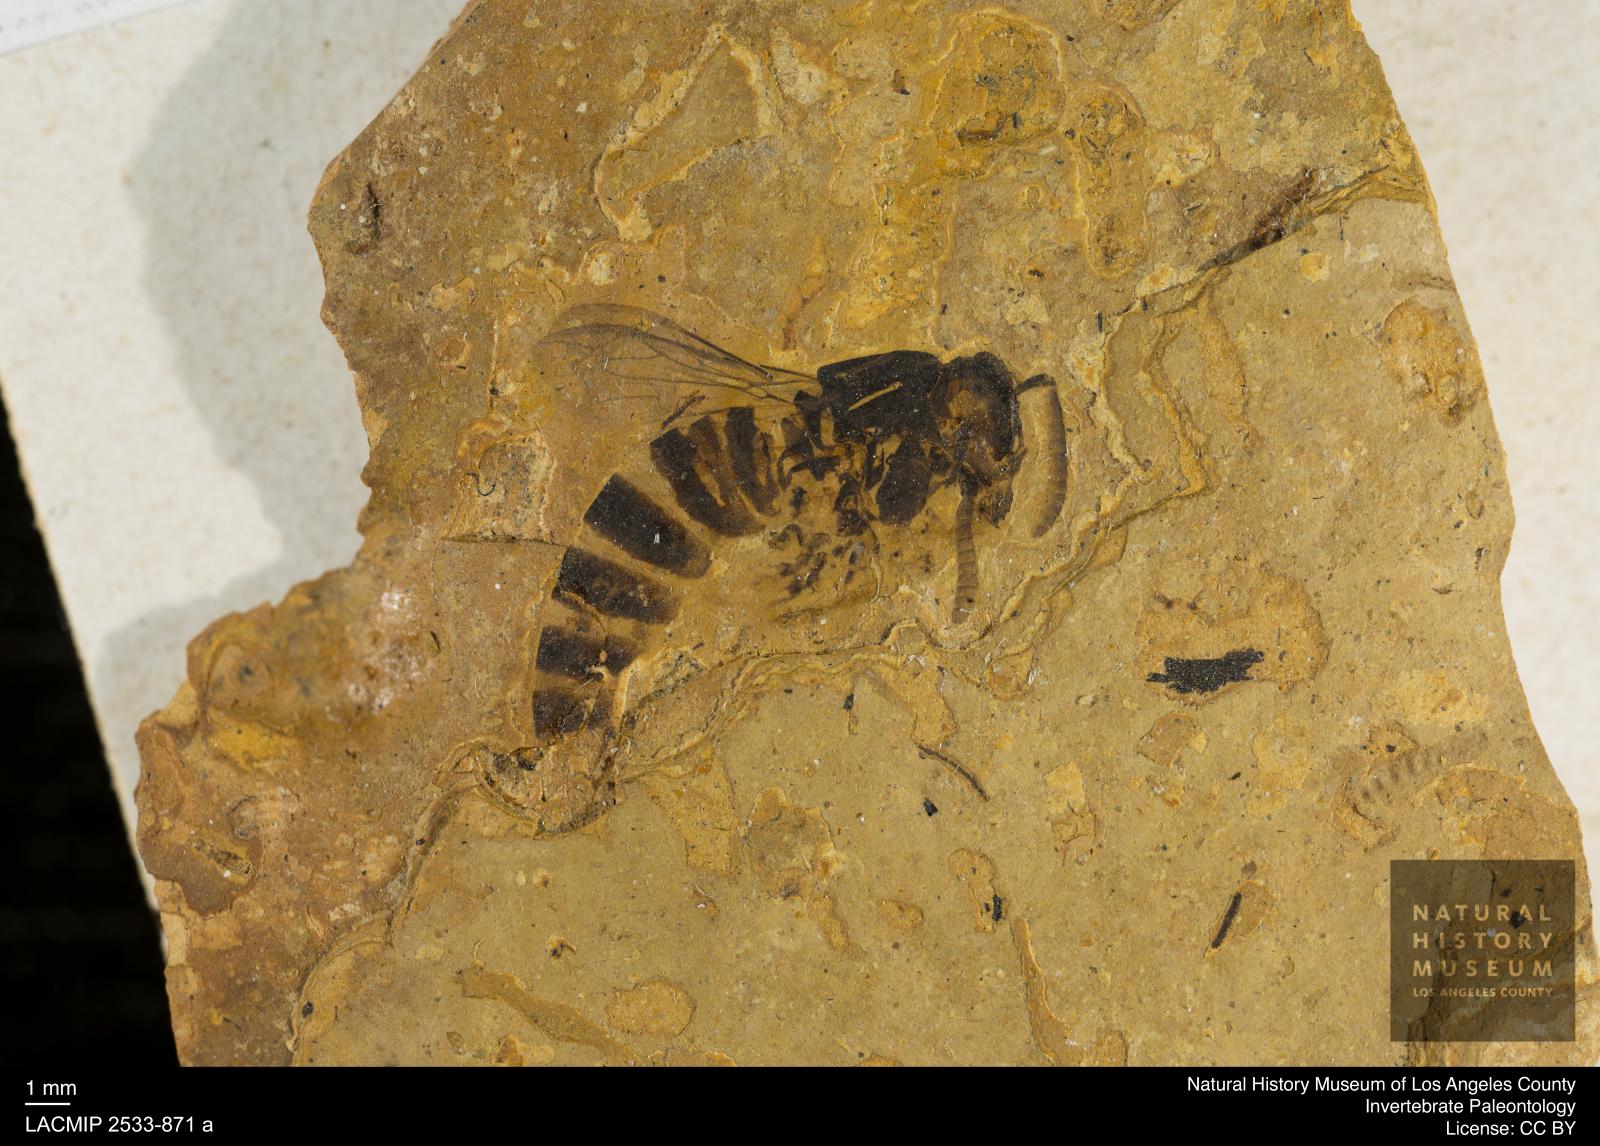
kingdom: Animalia
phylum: Arthropoda
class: Insecta
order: Hymenoptera
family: Vespidae
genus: Vespa
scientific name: Vespa bilineata
